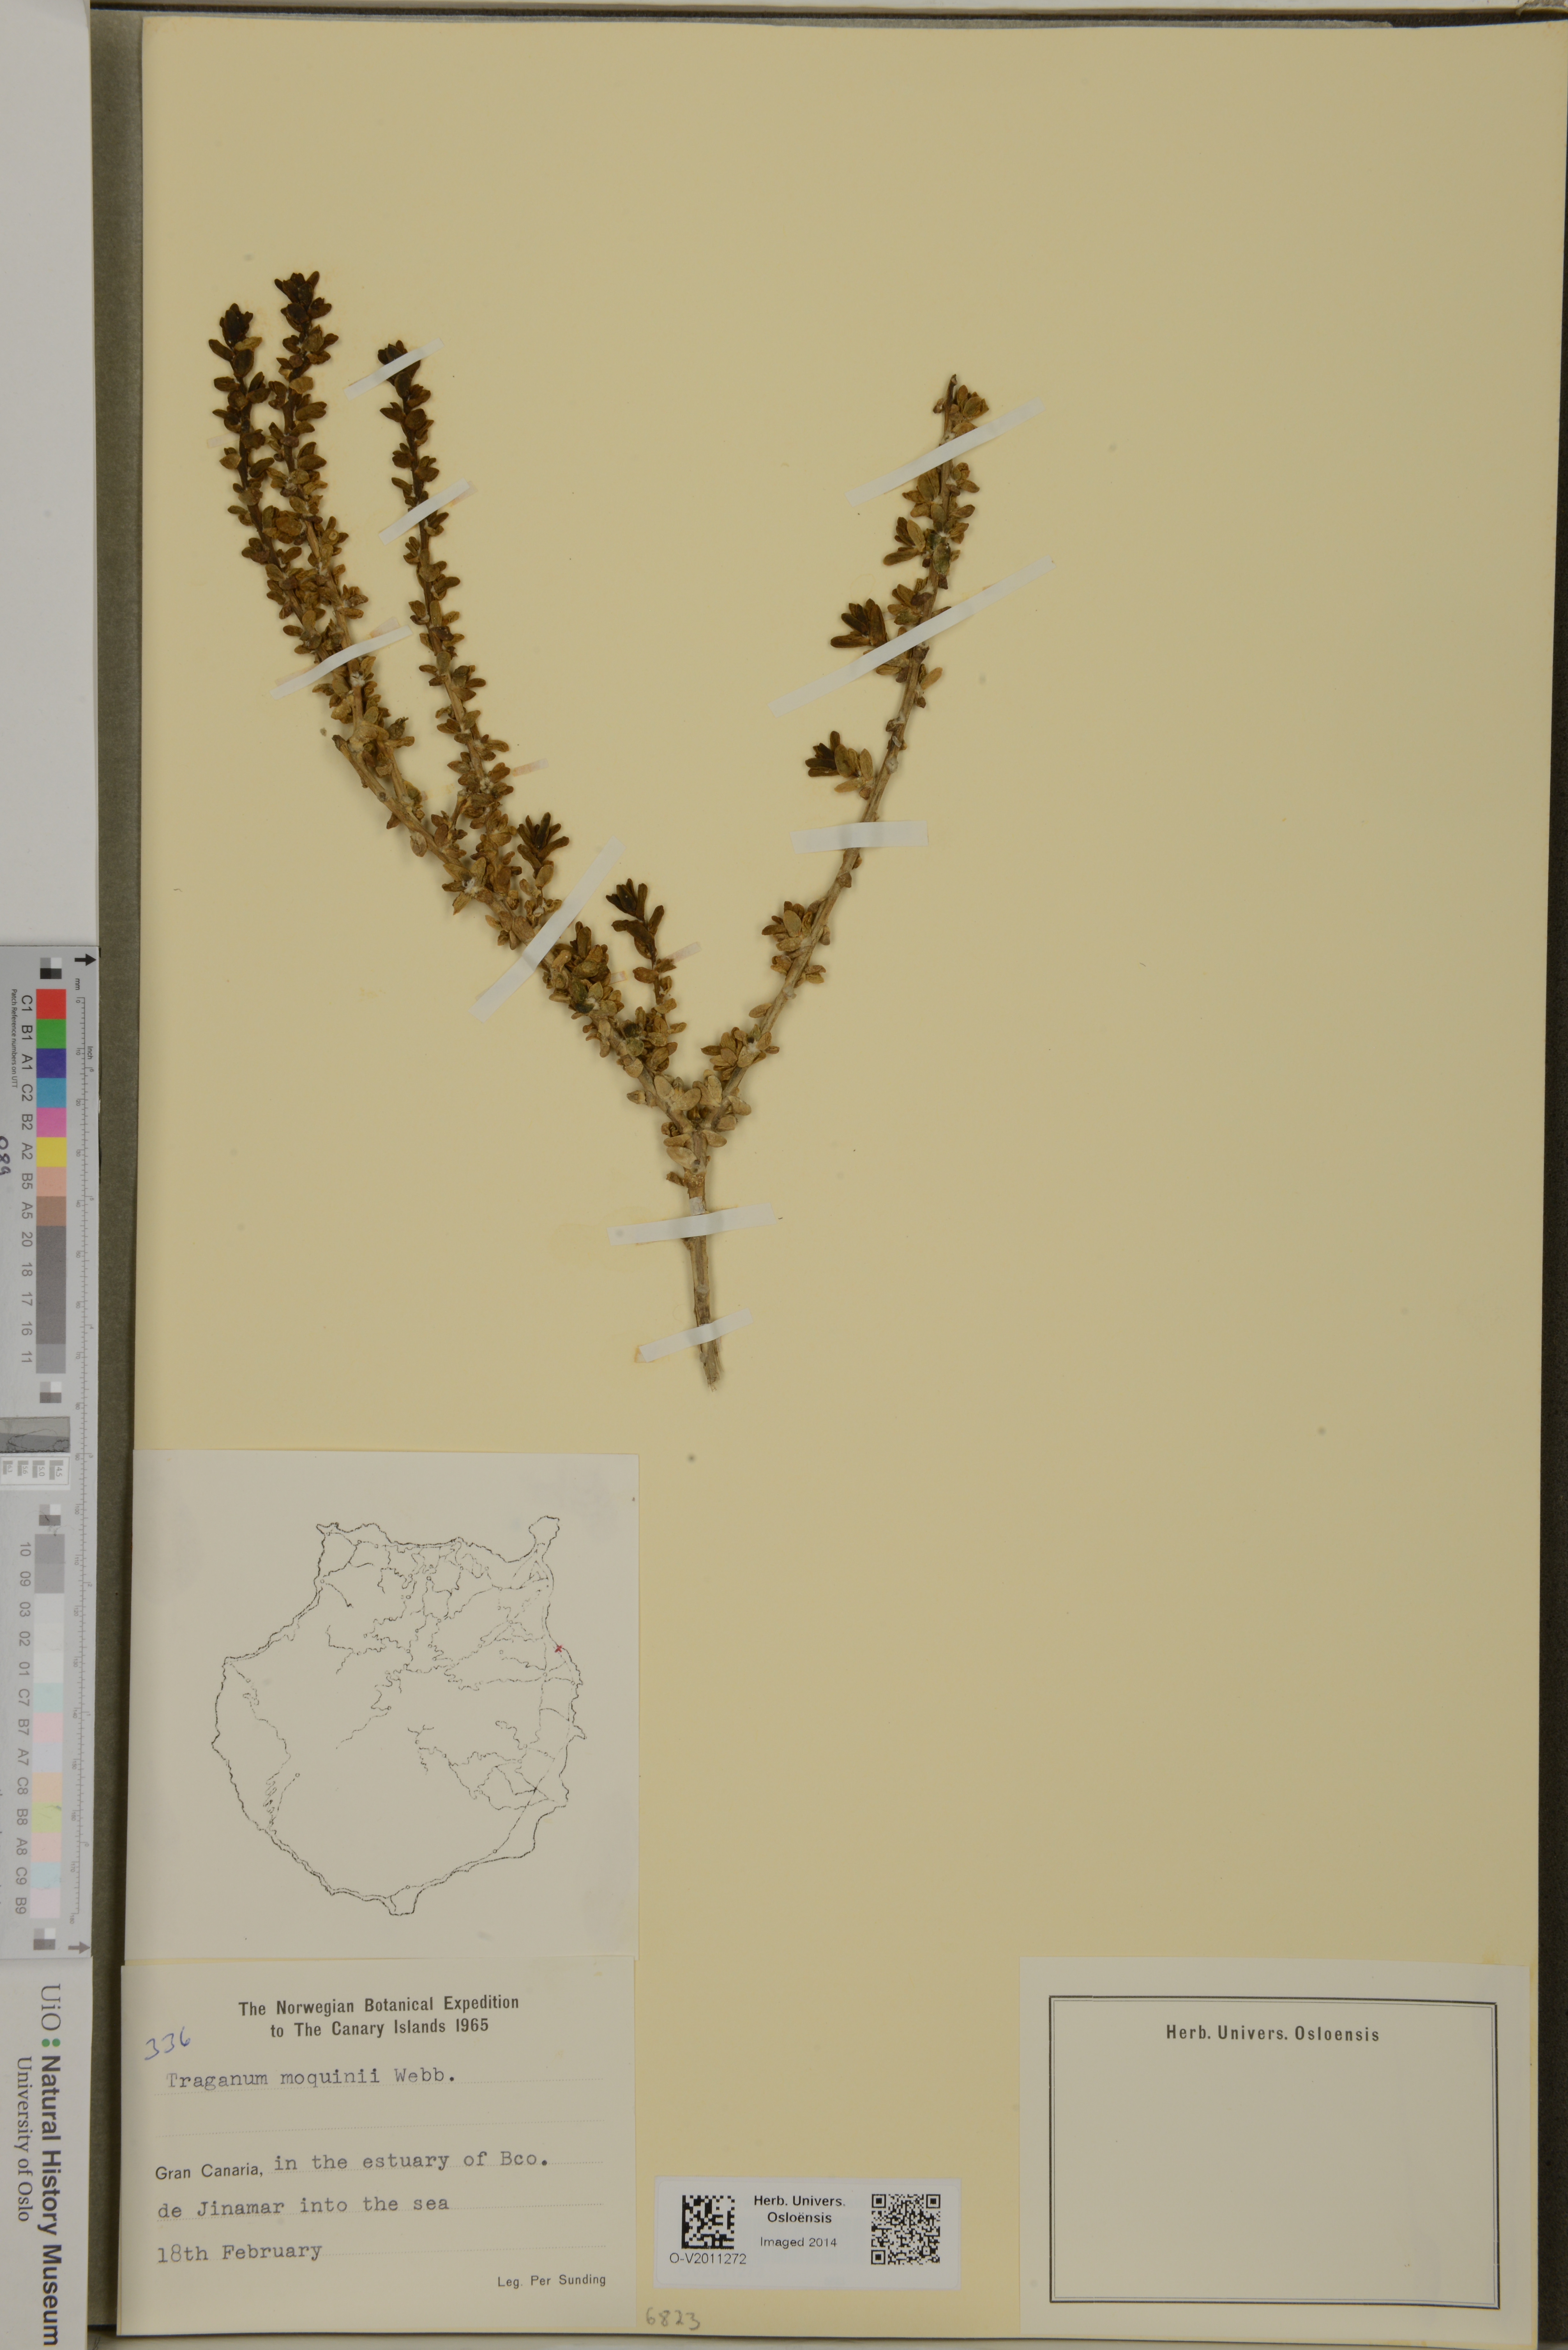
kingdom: Plantae
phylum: Tracheophyta
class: Magnoliopsida
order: Caryophyllales
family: Amaranthaceae
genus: Traganum
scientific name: Traganum moquinii
